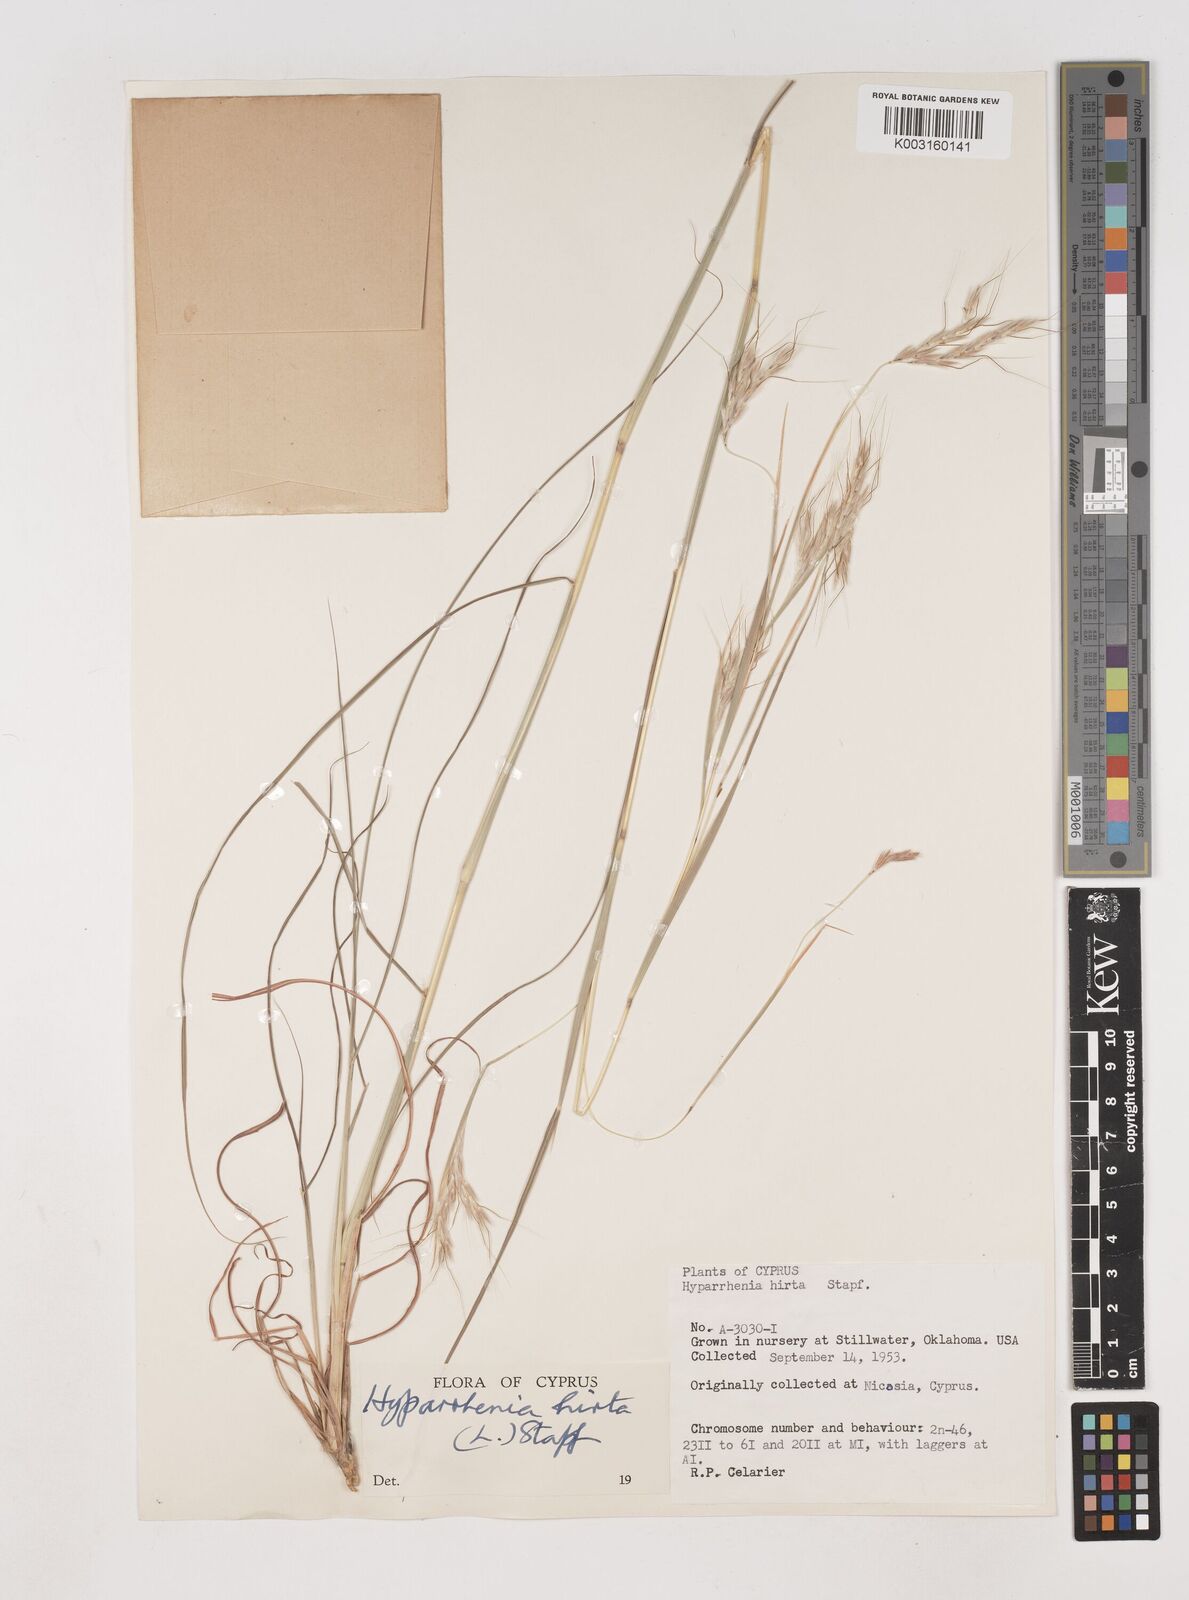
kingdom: Plantae
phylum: Tracheophyta
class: Liliopsida
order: Poales
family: Poaceae
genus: Hyparrhenia
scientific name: Hyparrhenia hirta
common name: Thatching grass
